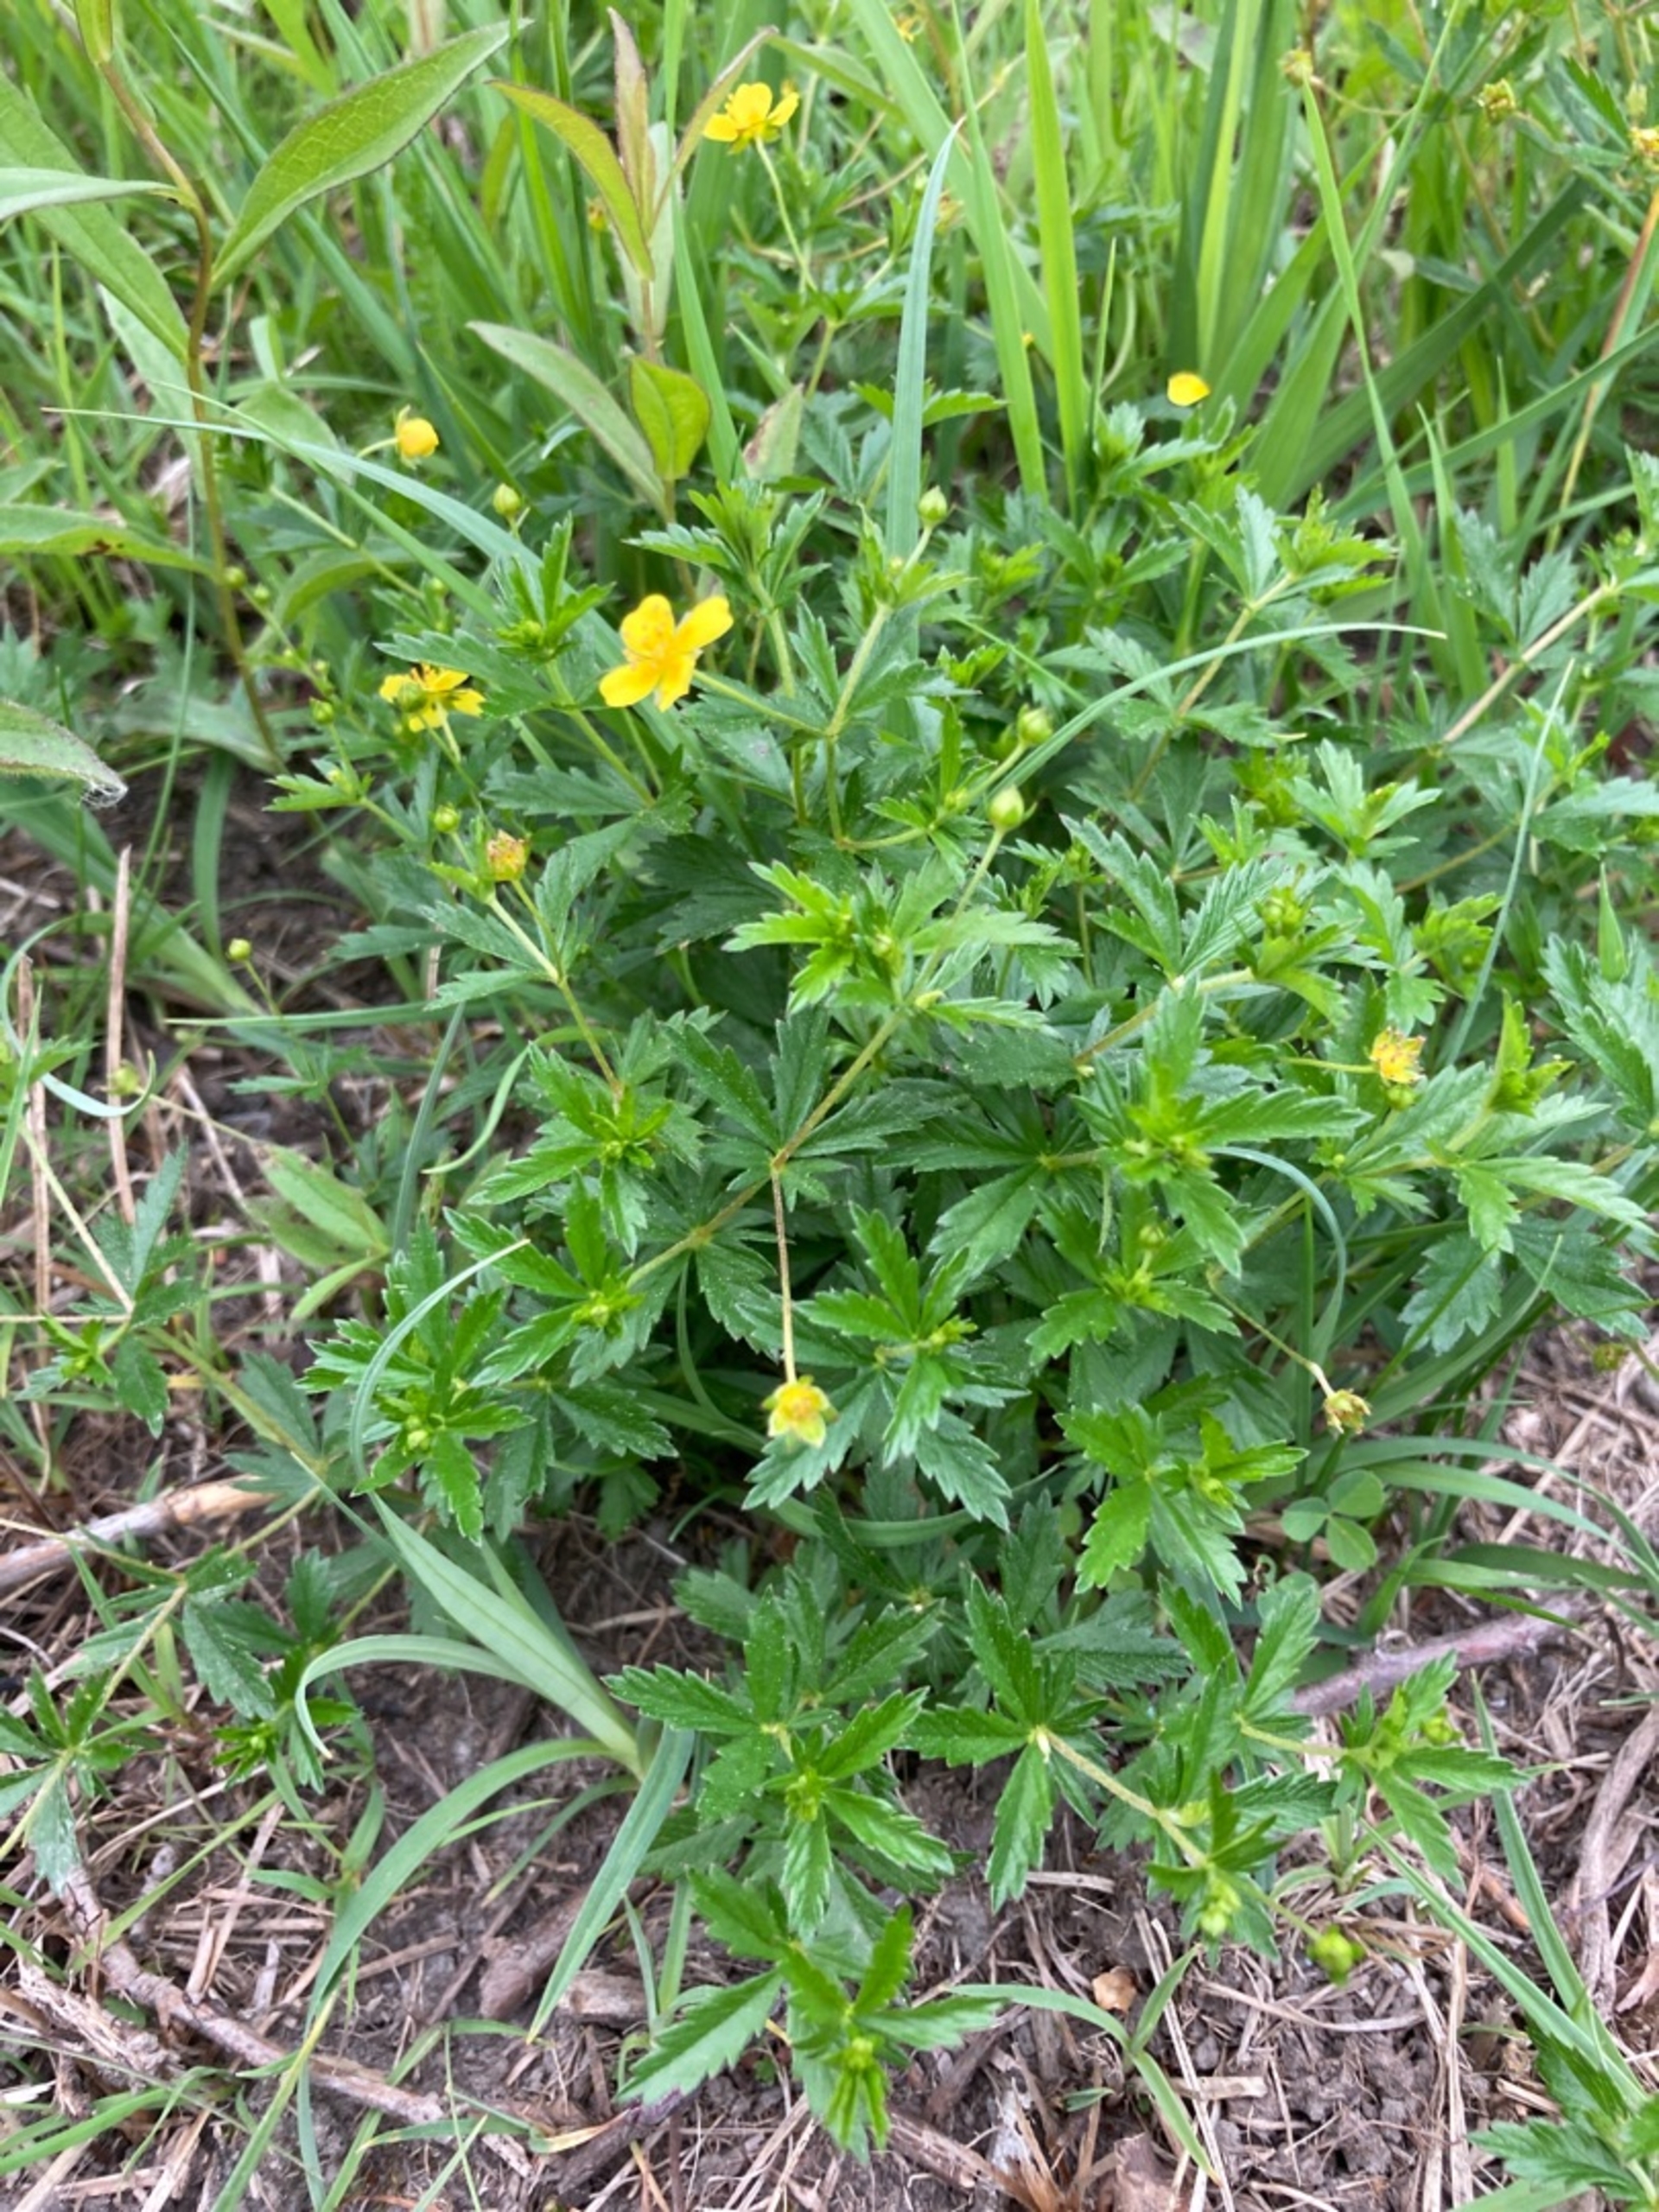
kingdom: Plantae
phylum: Tracheophyta
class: Magnoliopsida
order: Rosales
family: Rosaceae
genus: Potentilla
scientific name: Potentilla erecta
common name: Tormentil
